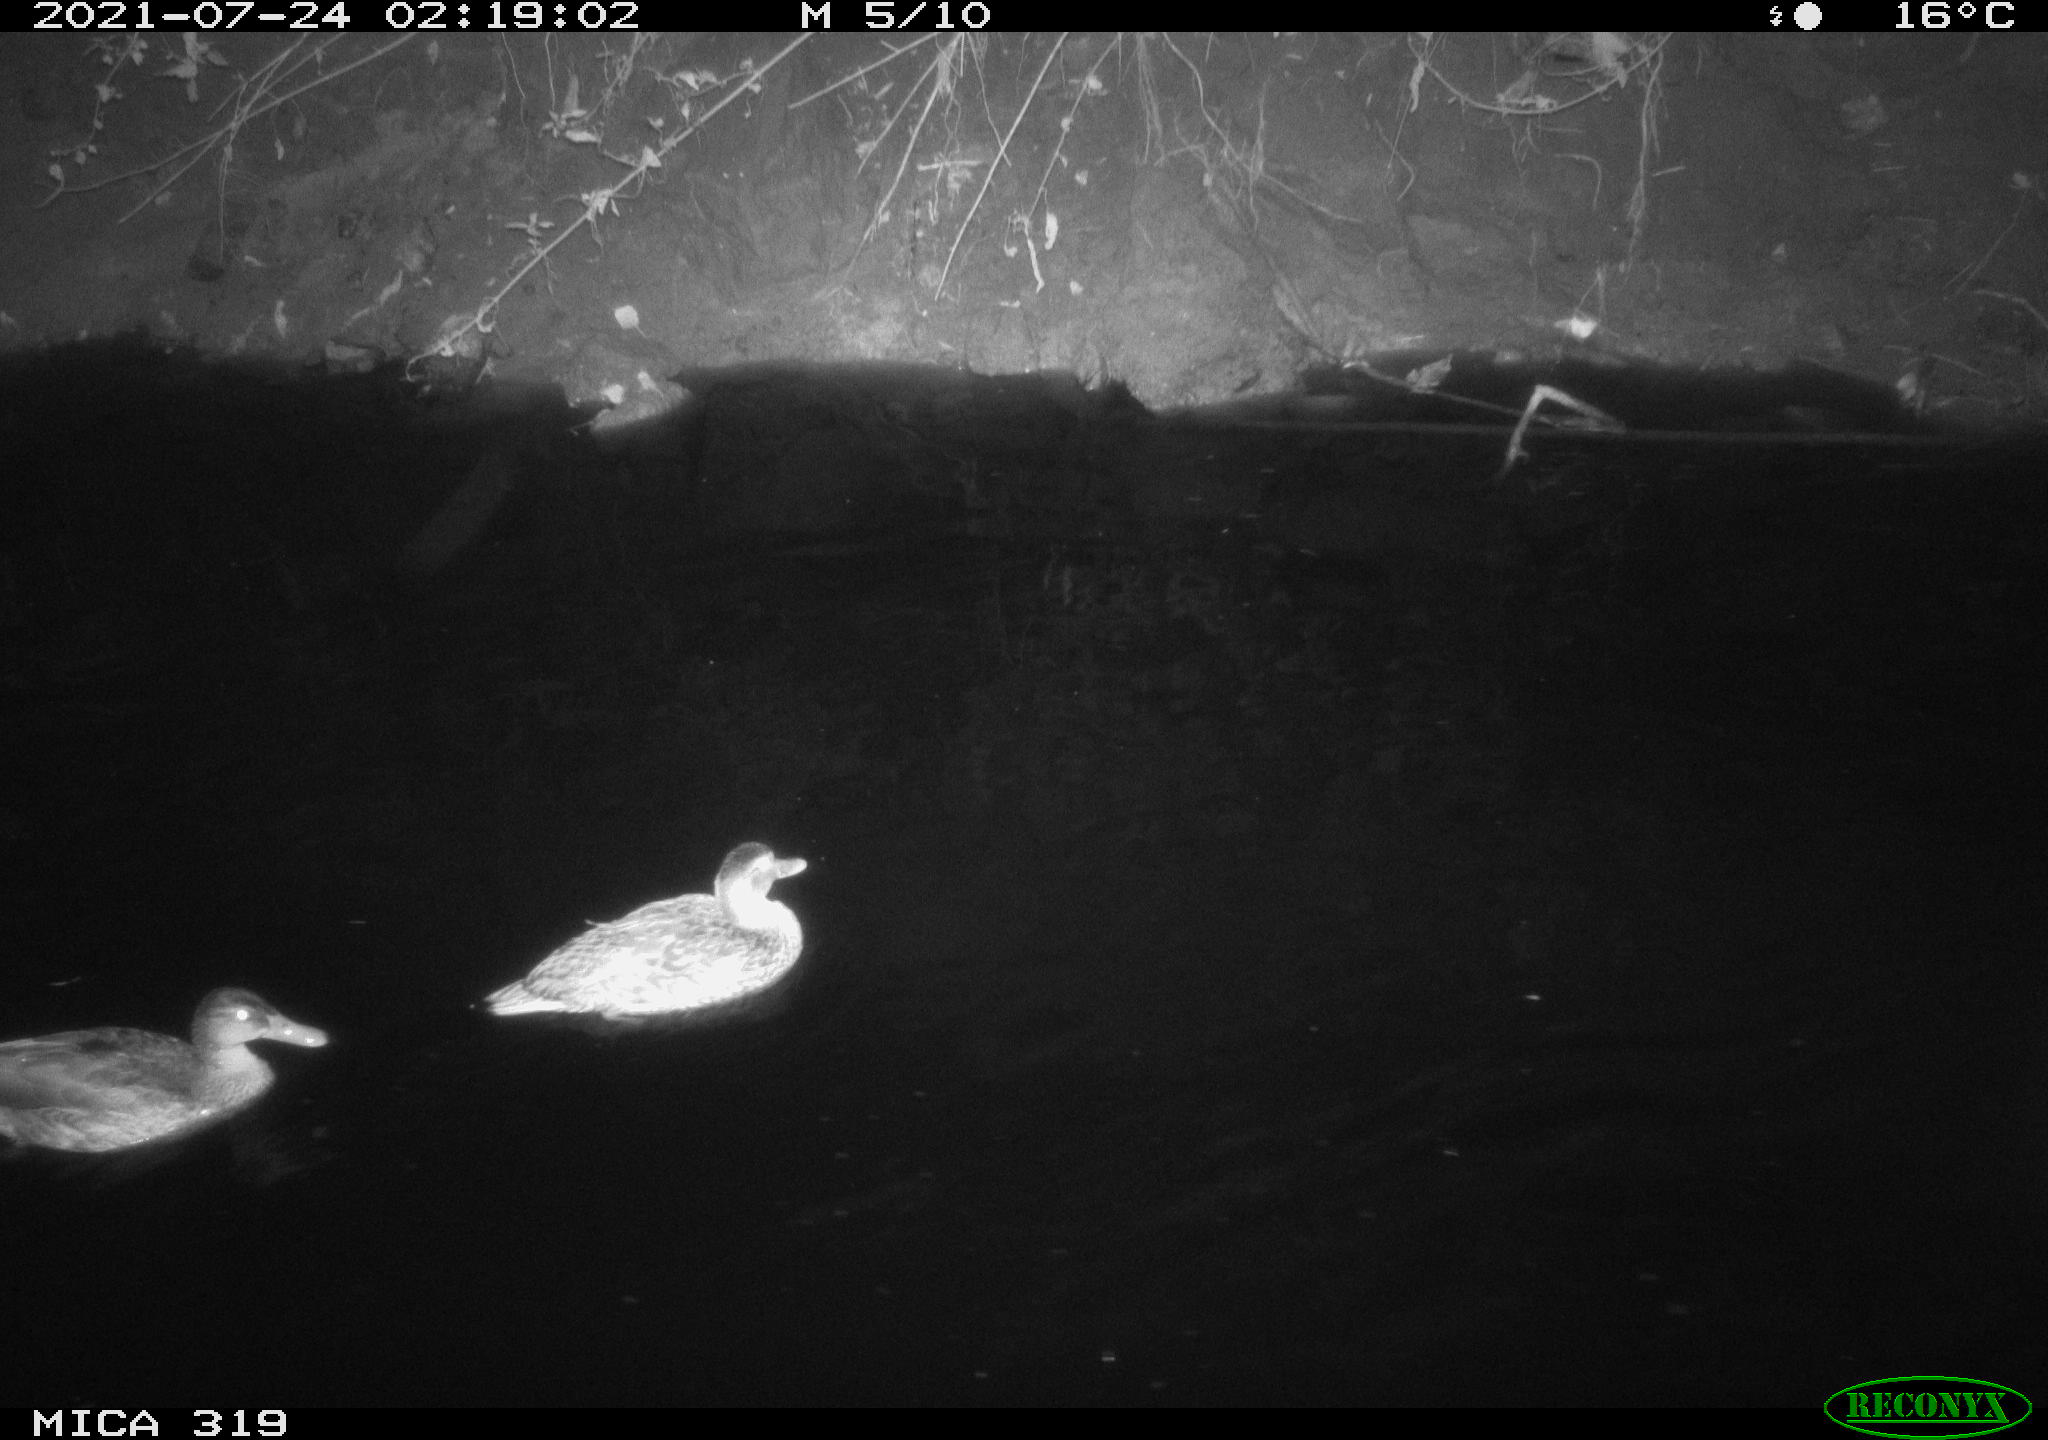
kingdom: Animalia
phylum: Chordata
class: Aves
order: Anseriformes
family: Anatidae
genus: Anas
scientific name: Anas platyrhynchos
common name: Mallard
